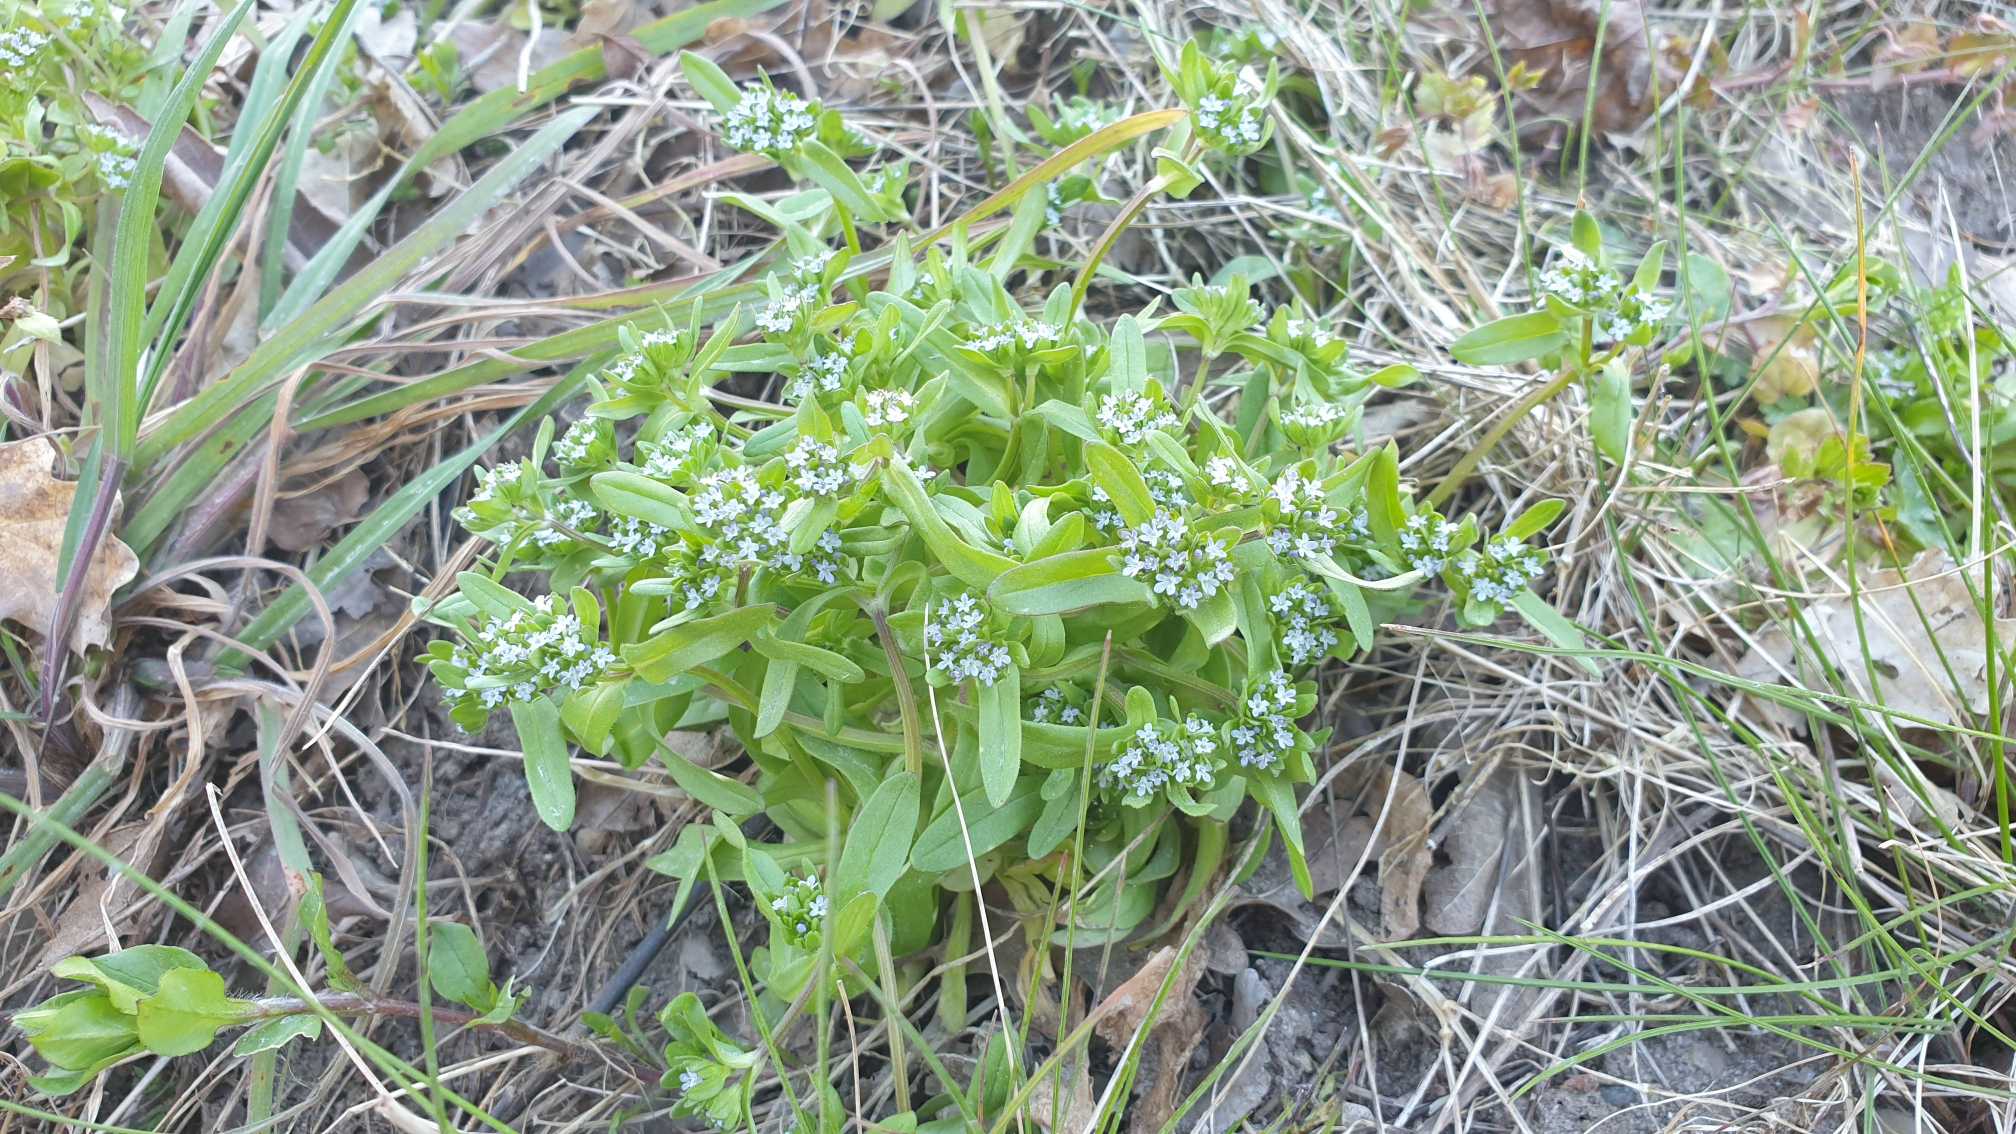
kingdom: Plantae
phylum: Tracheophyta
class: Magnoliopsida
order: Dipsacales
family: Caprifoliaceae
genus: Valerianella
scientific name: Valerianella locusta
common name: Tandfri vårsalat
